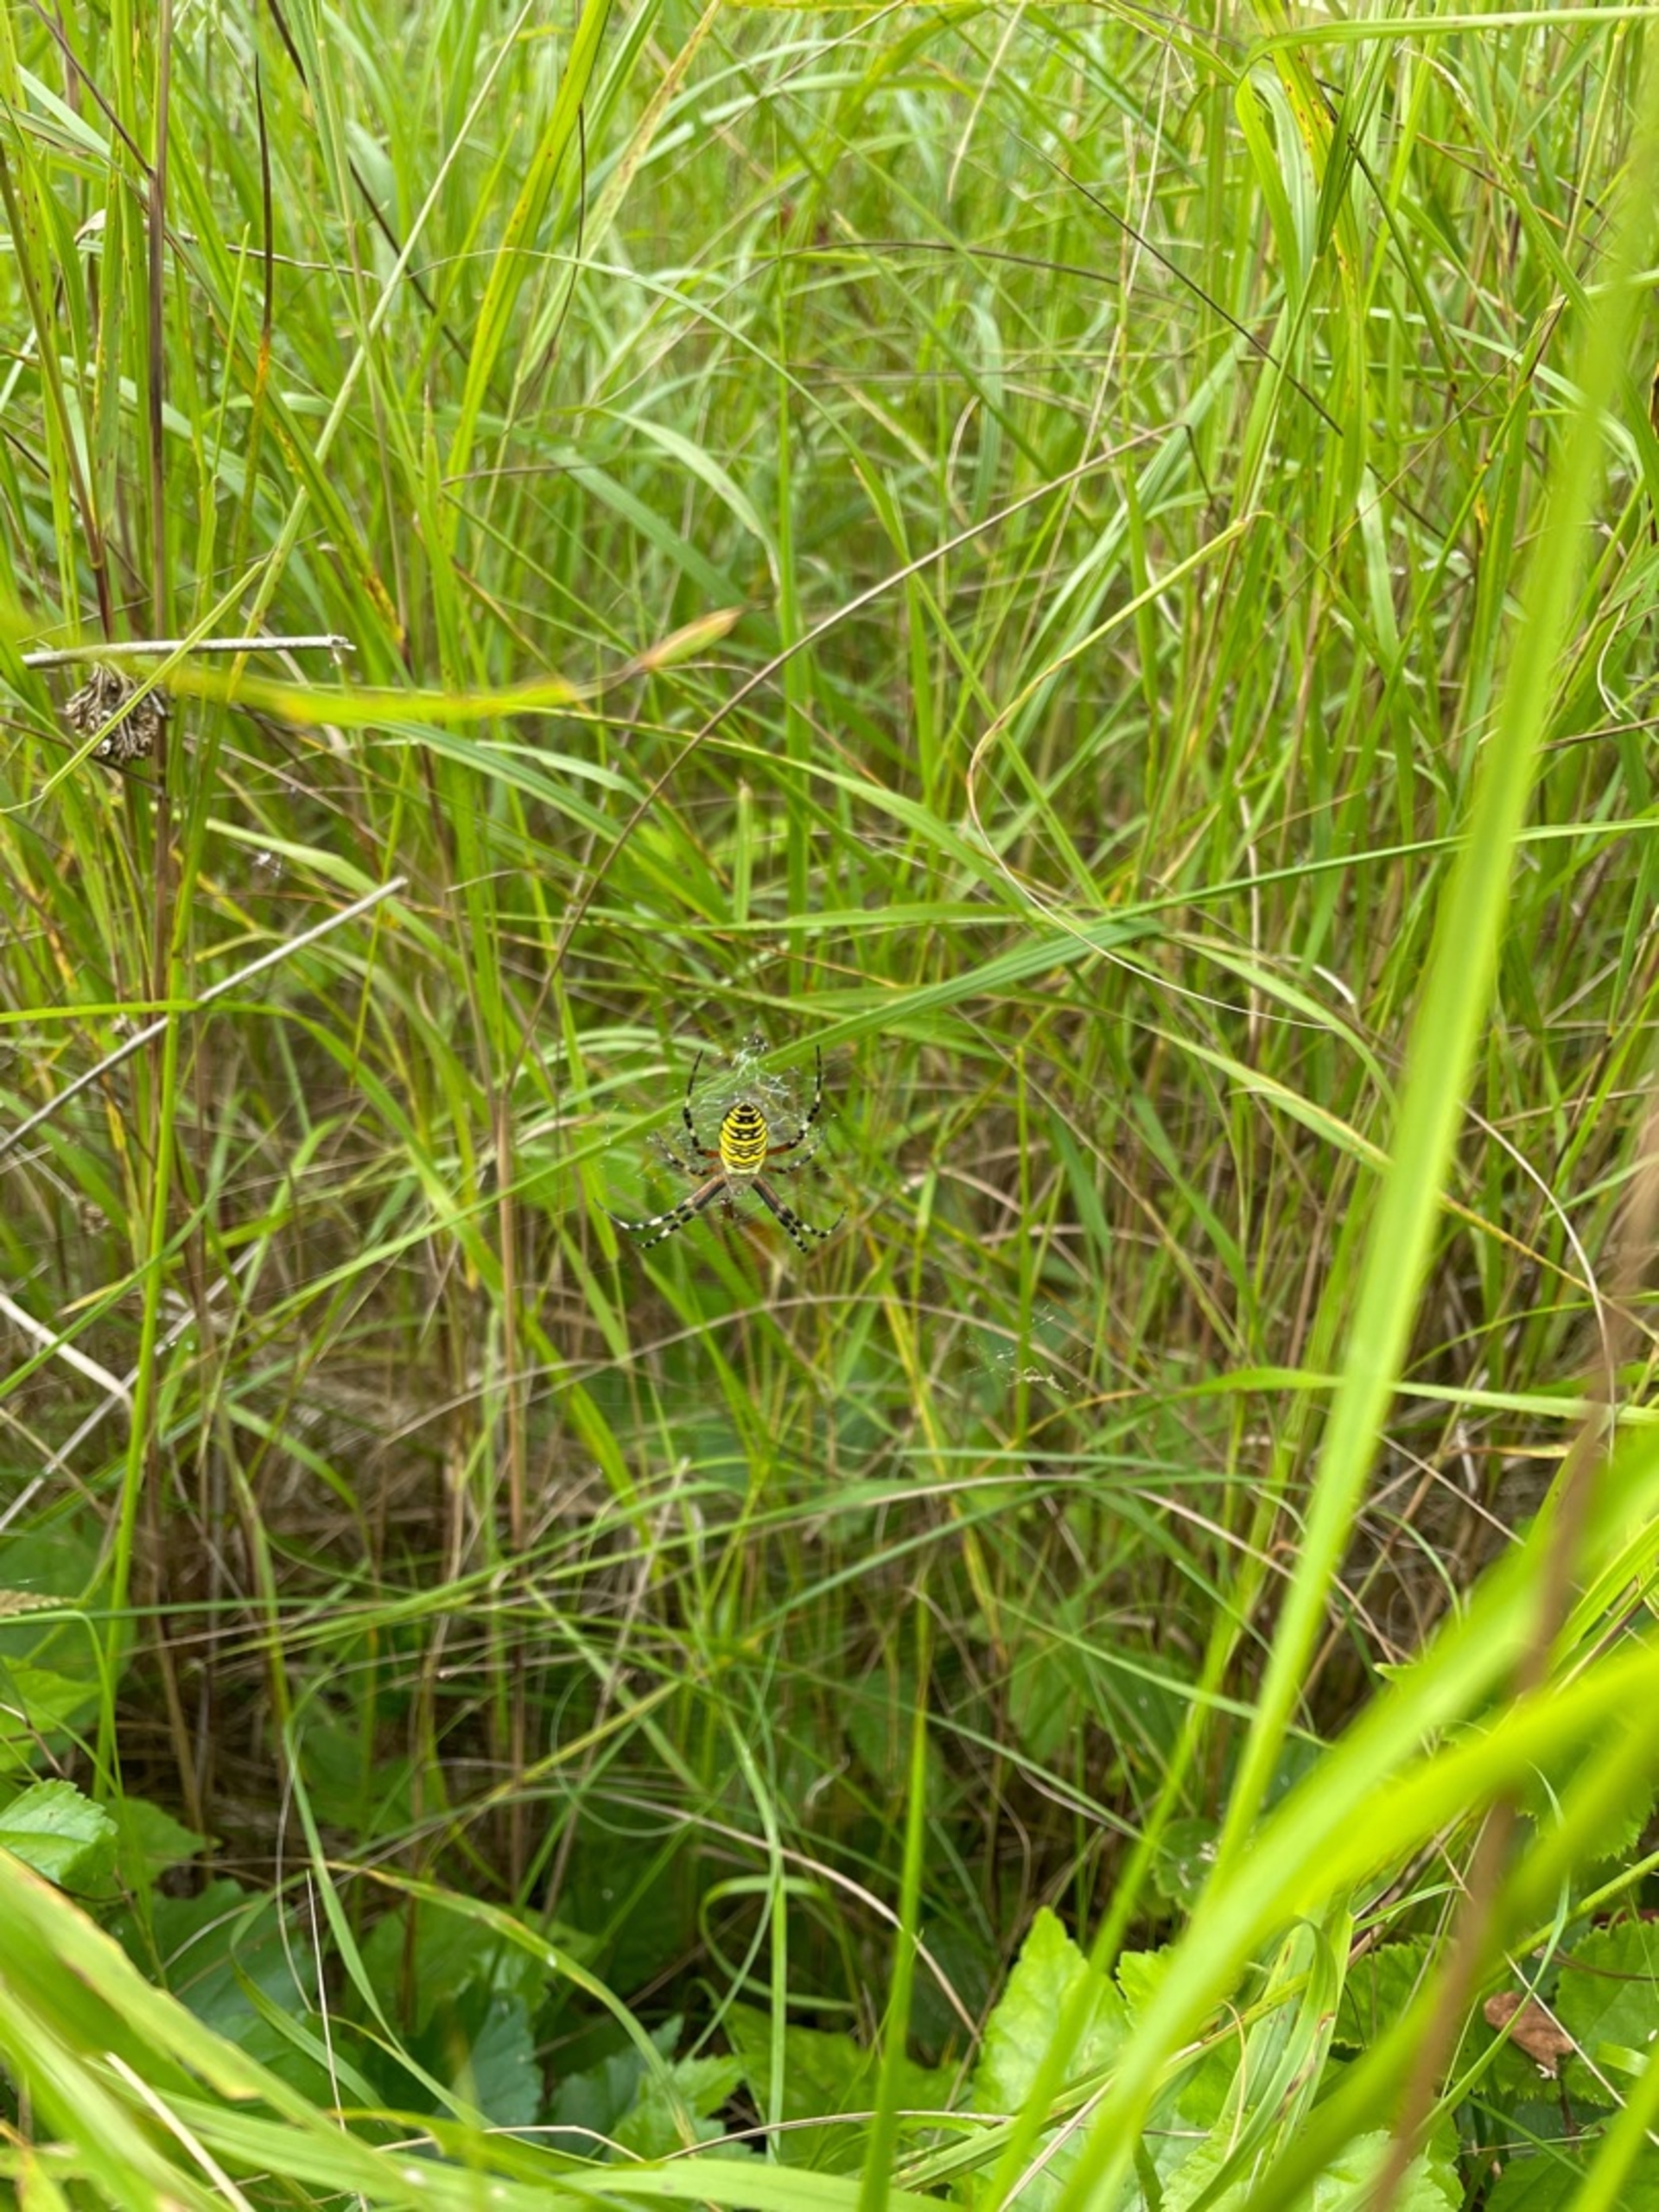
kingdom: Animalia
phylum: Arthropoda
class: Arachnida
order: Araneae
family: Araneidae
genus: Argiope
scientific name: Argiope bruennichi
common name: Hvepseedderkop
